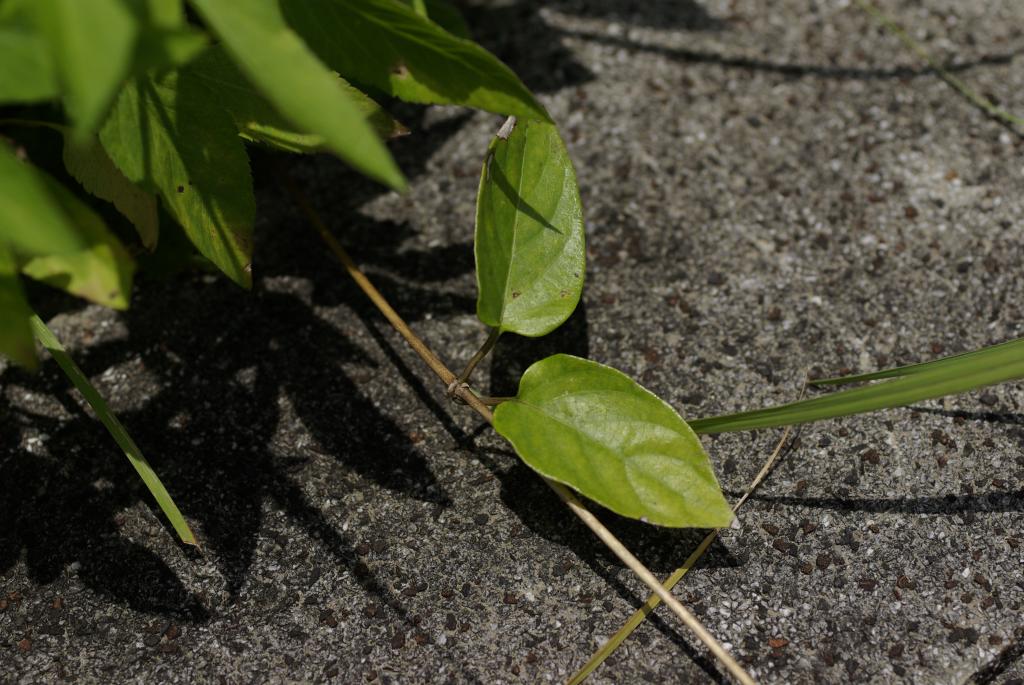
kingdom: Plantae
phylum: Tracheophyta
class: Magnoliopsida
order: Gentianales
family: Rubiaceae
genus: Paederia
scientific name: Paederia foetida
